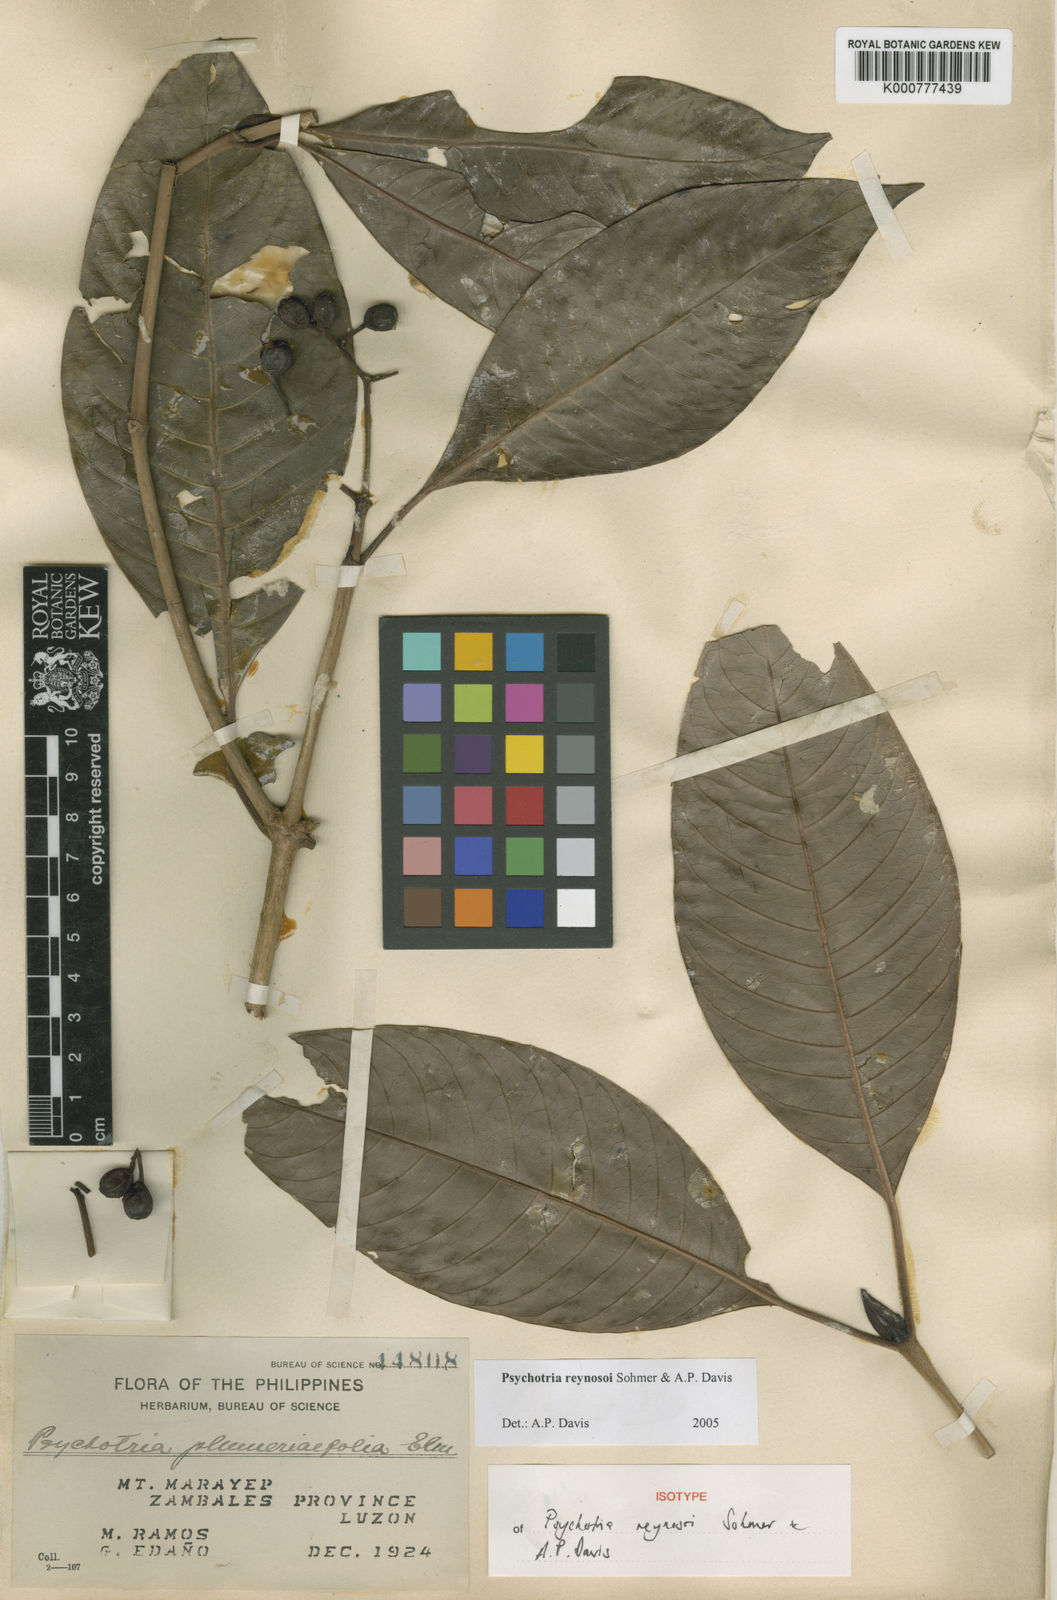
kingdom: Plantae
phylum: Tracheophyta
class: Magnoliopsida
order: Gentianales
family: Rubiaceae
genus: Psychotria
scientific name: Psychotria reynosoi
